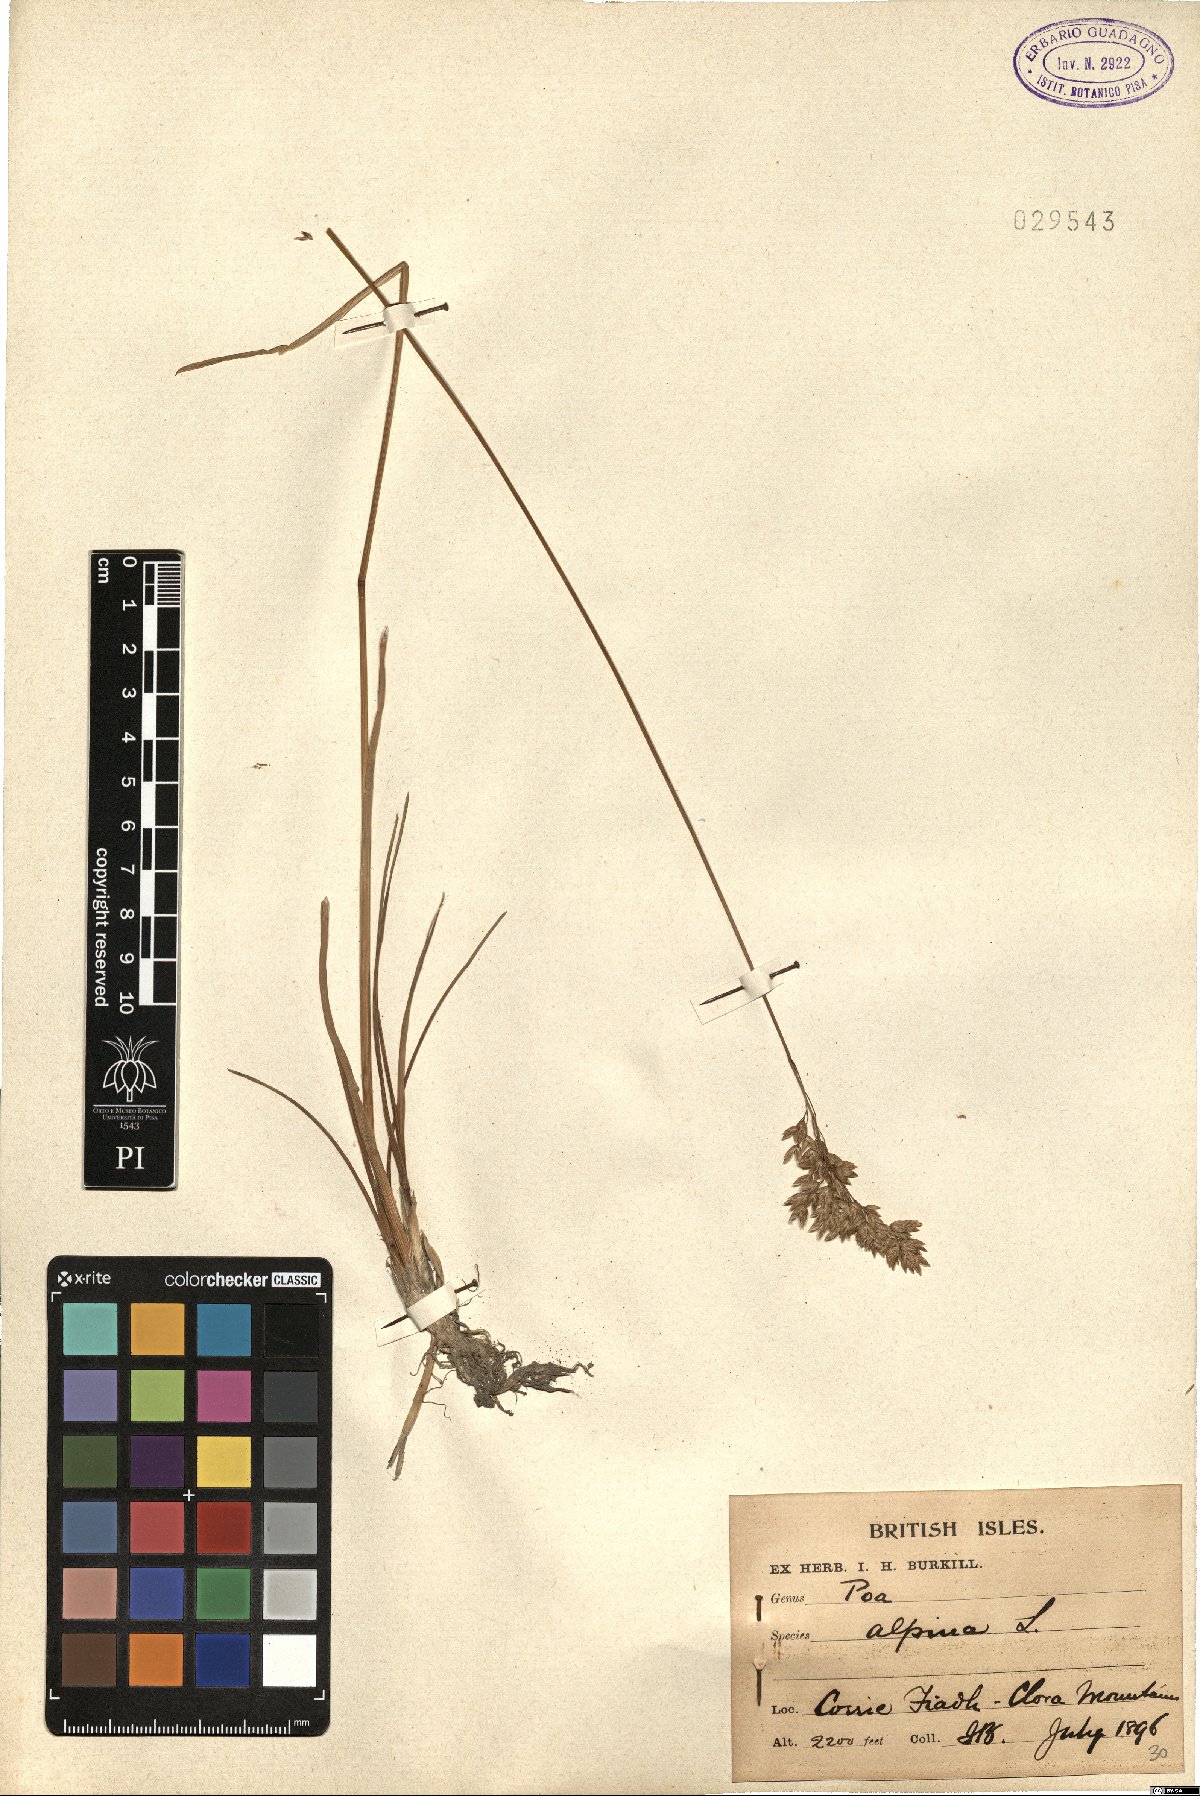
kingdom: Plantae
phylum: Tracheophyta
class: Liliopsida
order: Poales
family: Poaceae
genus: Poa
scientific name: Poa alpina
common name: Alpine bluegrass
